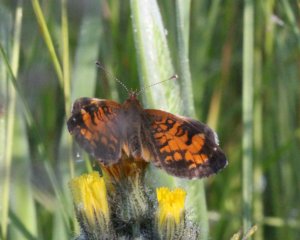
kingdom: Animalia
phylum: Arthropoda
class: Insecta
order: Lepidoptera
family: Nymphalidae
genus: Phyciodes
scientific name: Phyciodes tharos
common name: Northern Crescent
